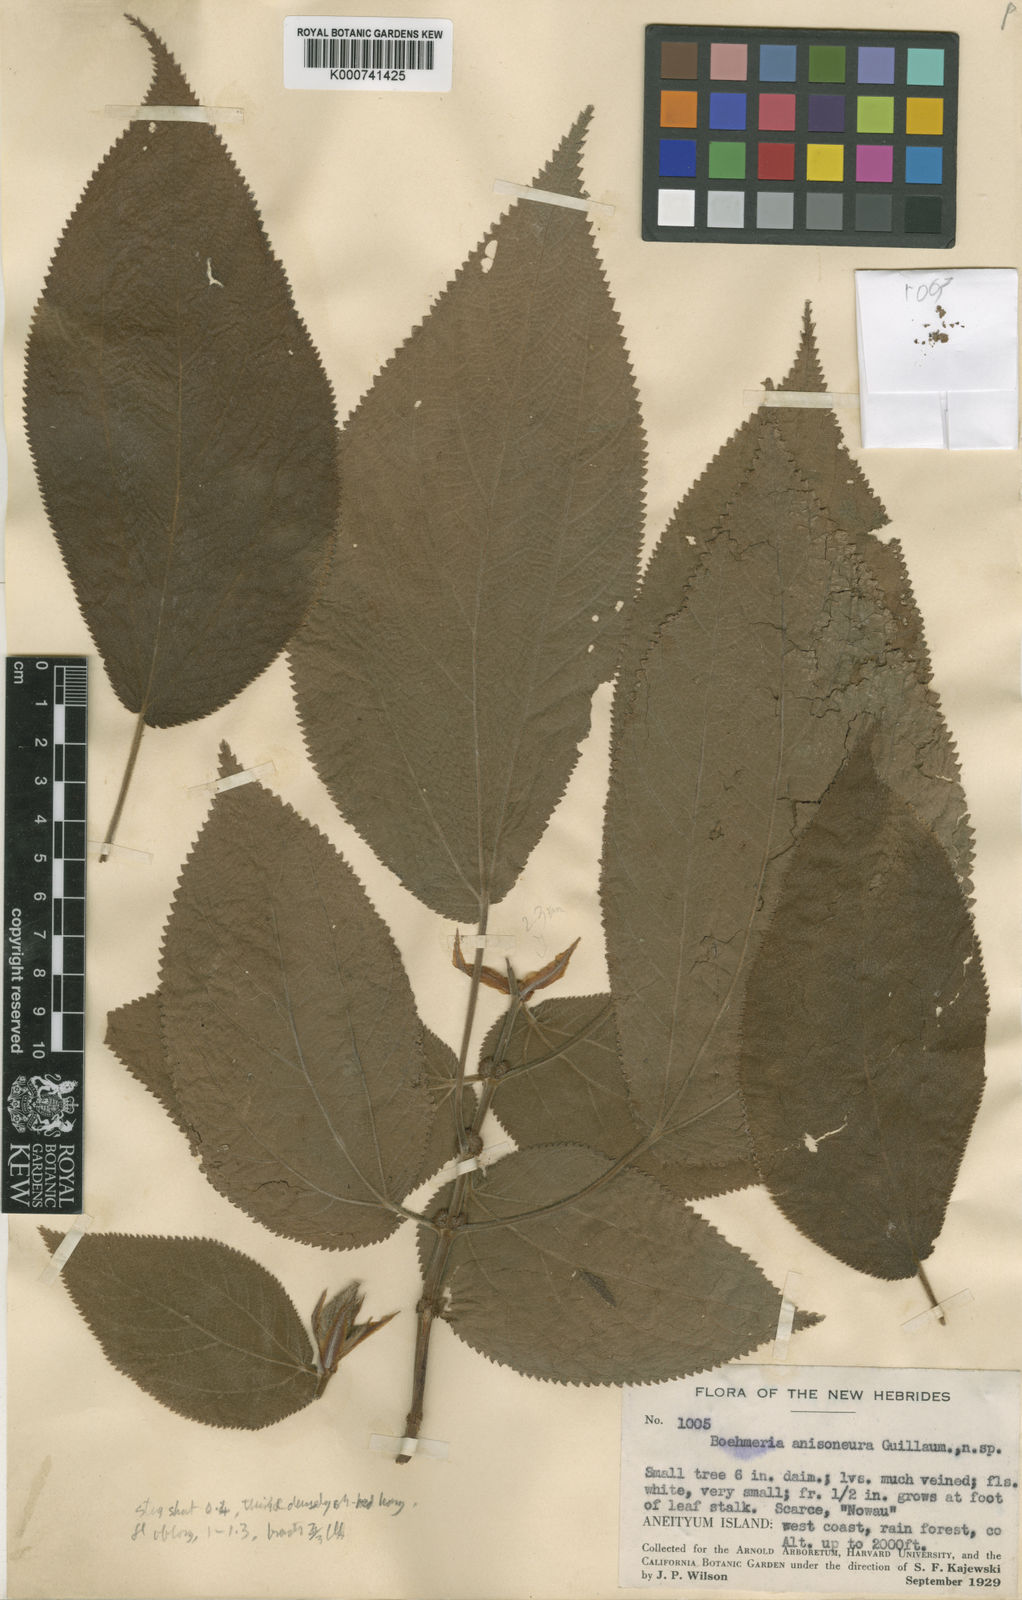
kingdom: Plantae
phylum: Tracheophyta
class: Magnoliopsida
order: Rosales
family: Urticaceae
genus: Cypholophus
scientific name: Cypholophus anisoneurus
